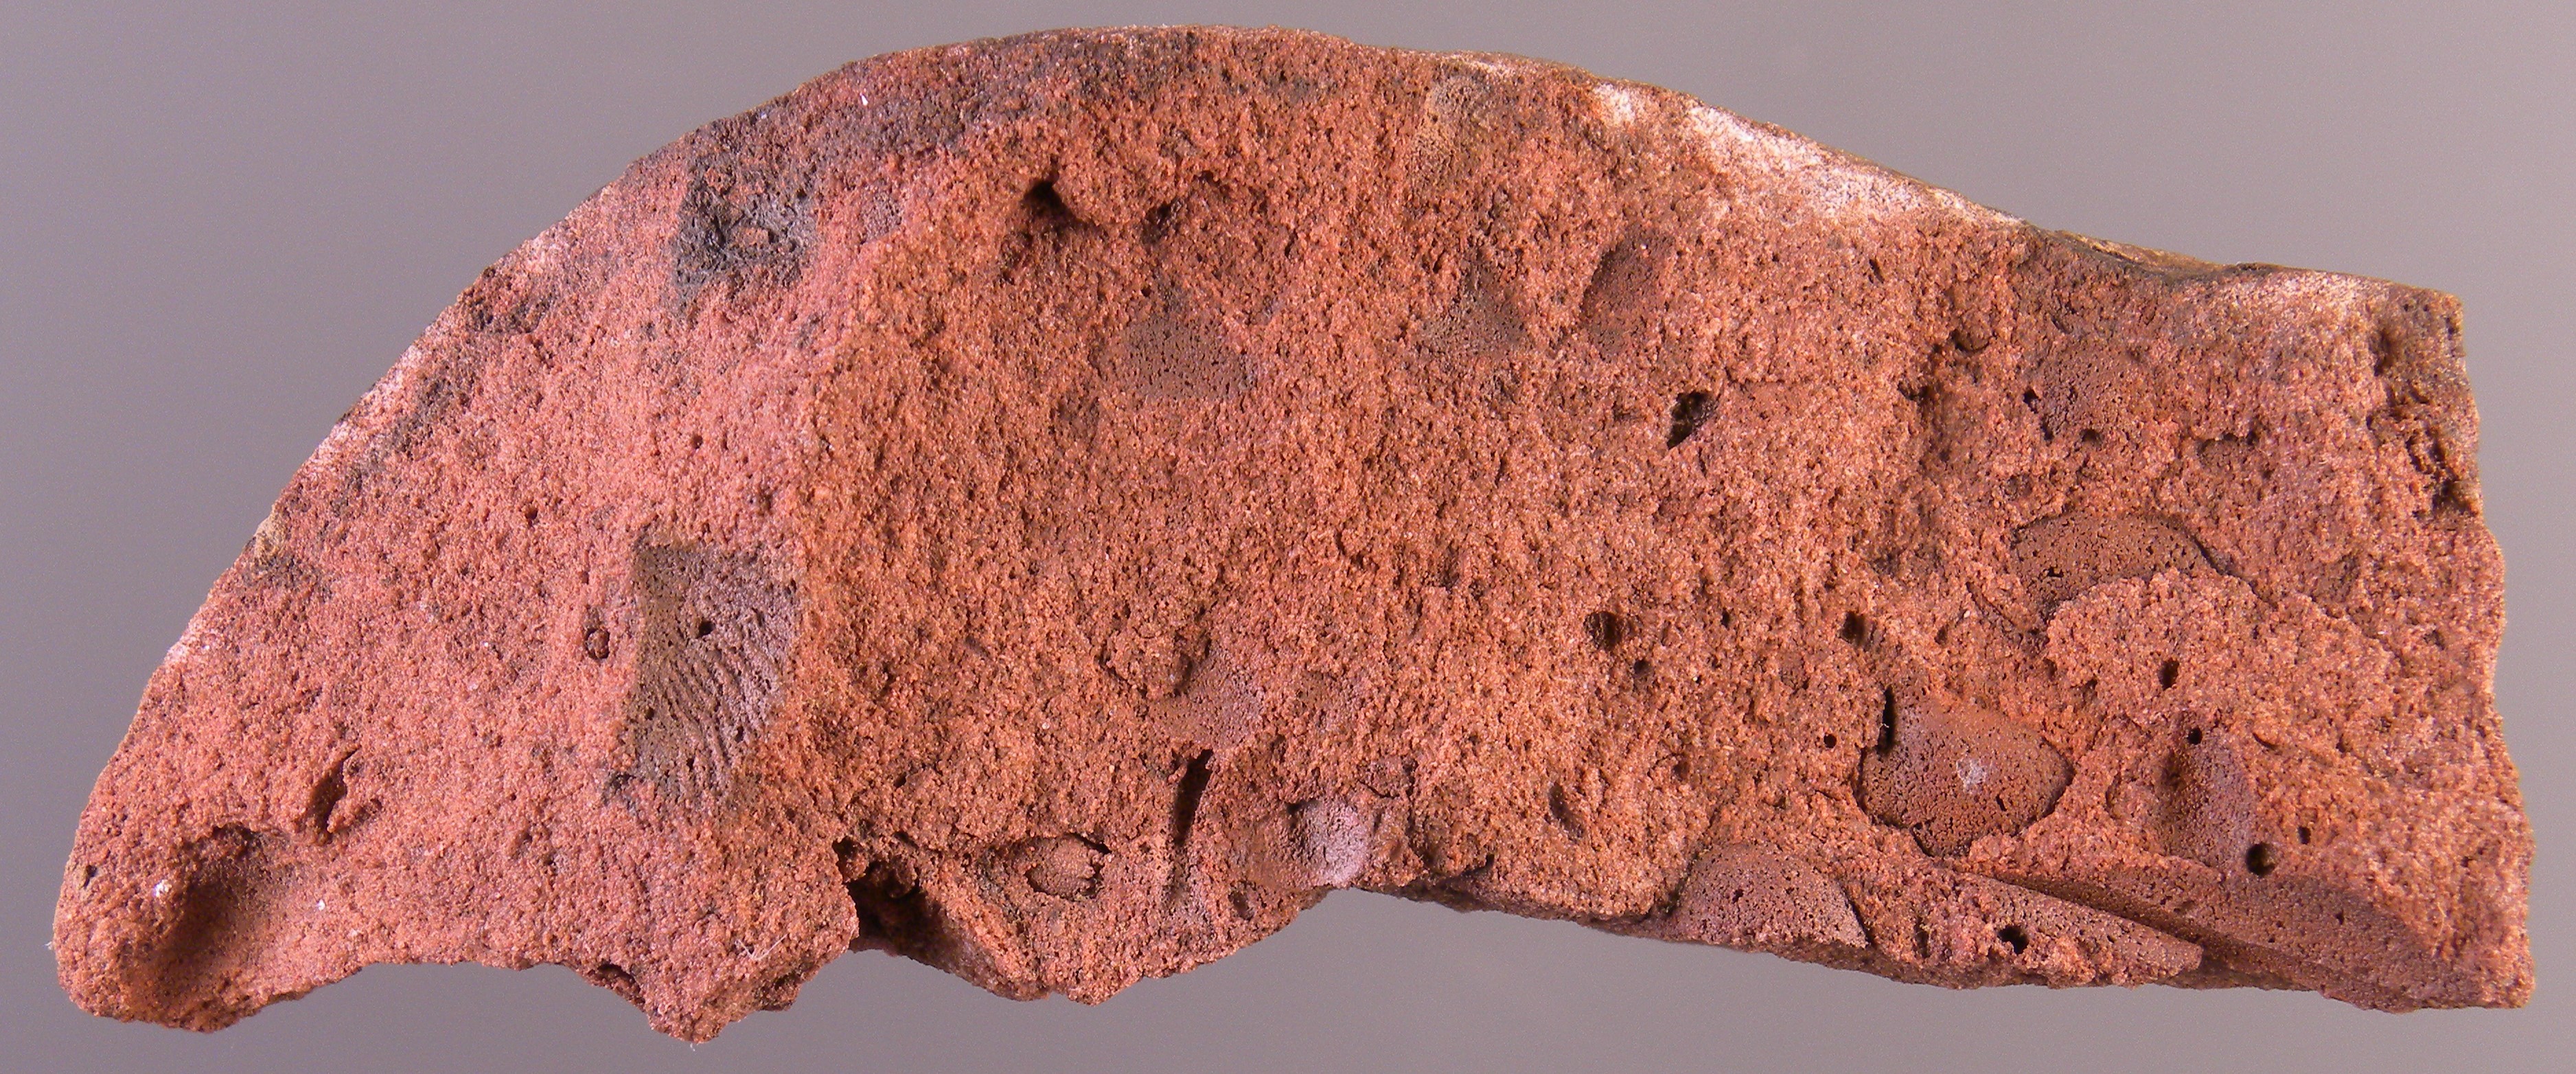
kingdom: Animalia
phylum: Arthropoda
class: Trilobita
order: Phacopida
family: Acastidae
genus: Acastava
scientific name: Acastava
